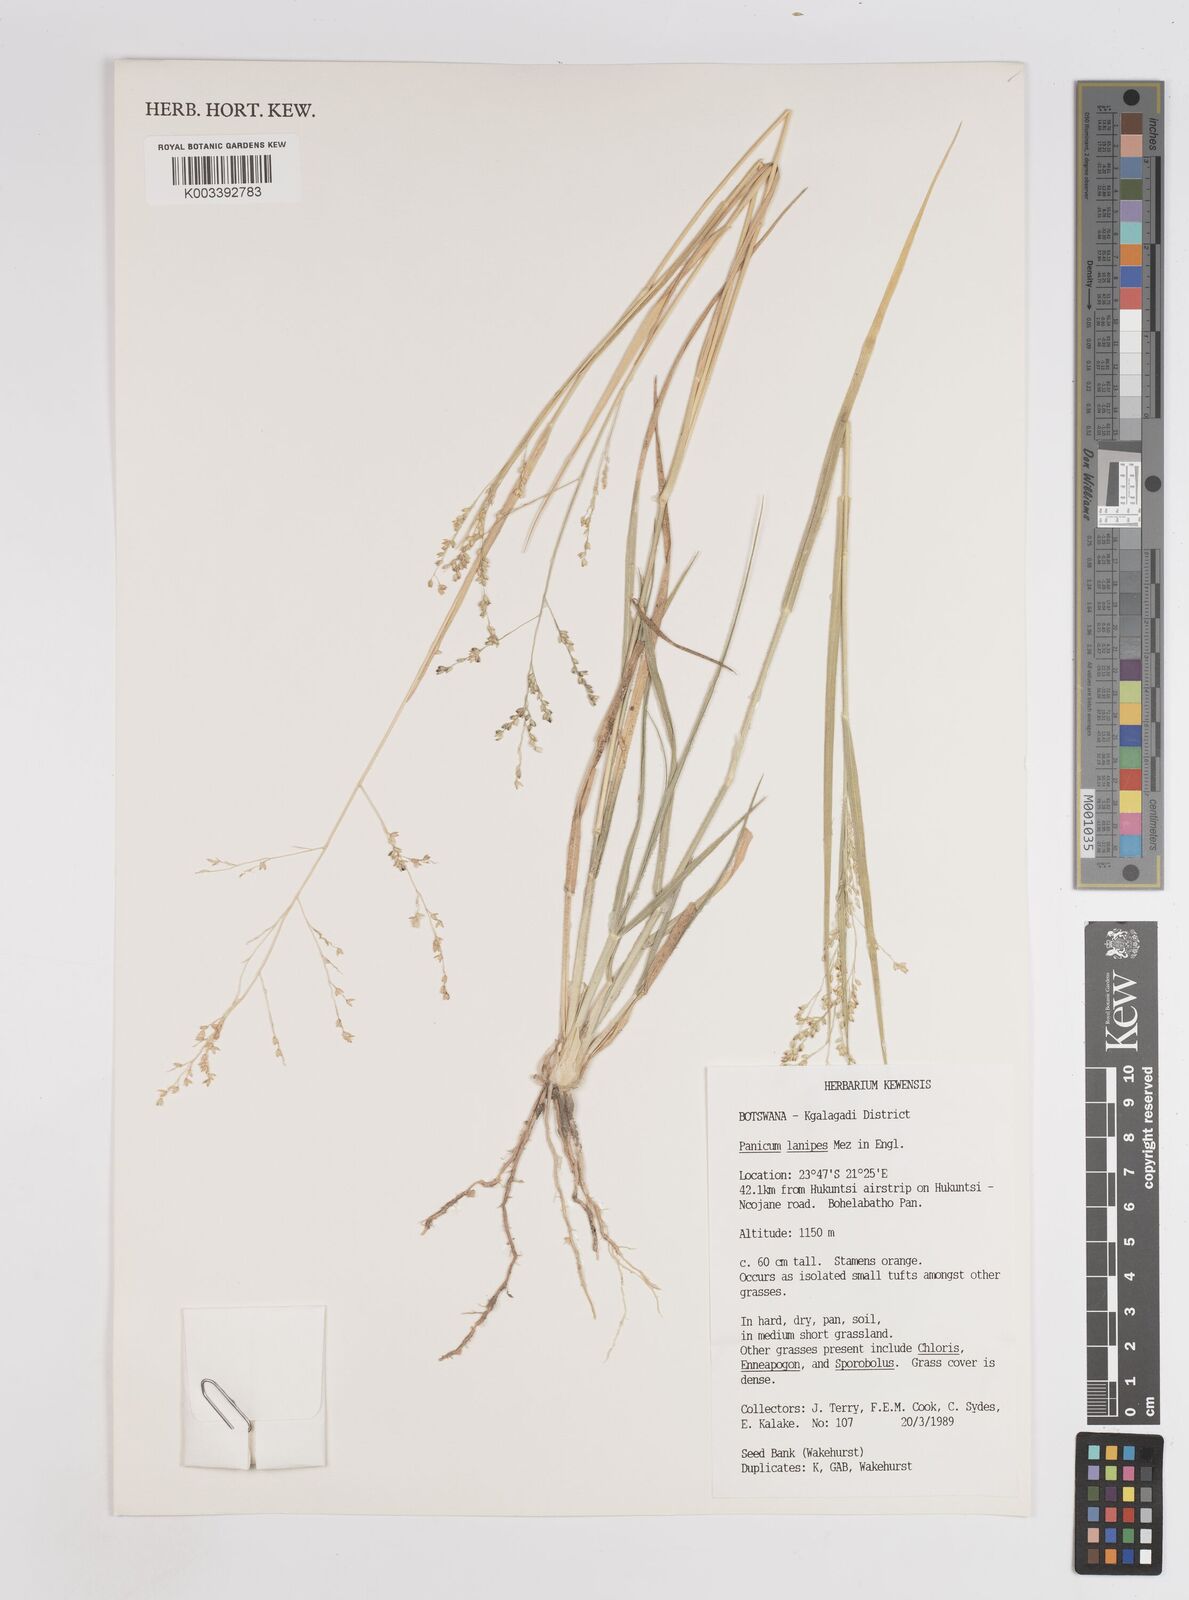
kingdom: Plantae
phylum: Tracheophyta
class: Liliopsida
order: Poales
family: Poaceae
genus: Panicum
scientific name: Panicum lanipes
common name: Wolvoet panicum
